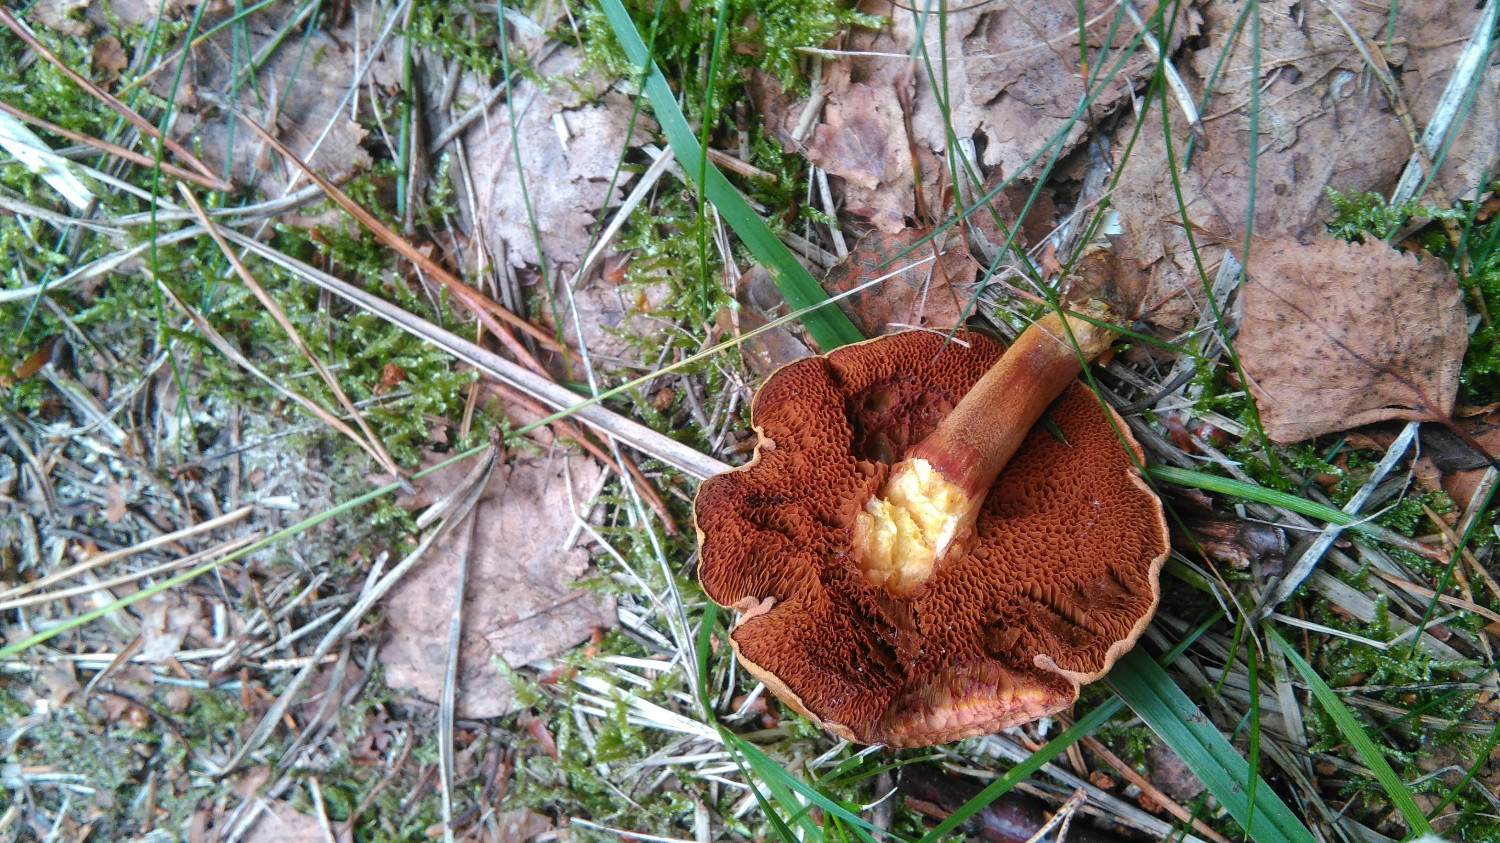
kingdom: Fungi
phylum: Basidiomycota
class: Agaricomycetes
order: Boletales
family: Boletaceae
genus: Chalciporus
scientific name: Chalciporus piperatus
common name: peberrørhat
